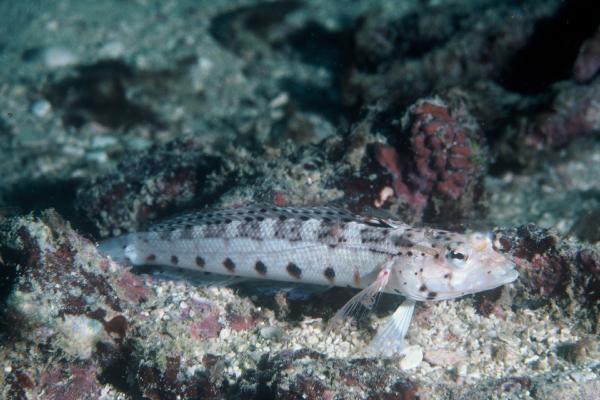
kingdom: Animalia
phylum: Chordata
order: Perciformes
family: Pinguipedidae
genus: Parapercis
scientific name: Parapercis punctulata
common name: Spotted sandperch
